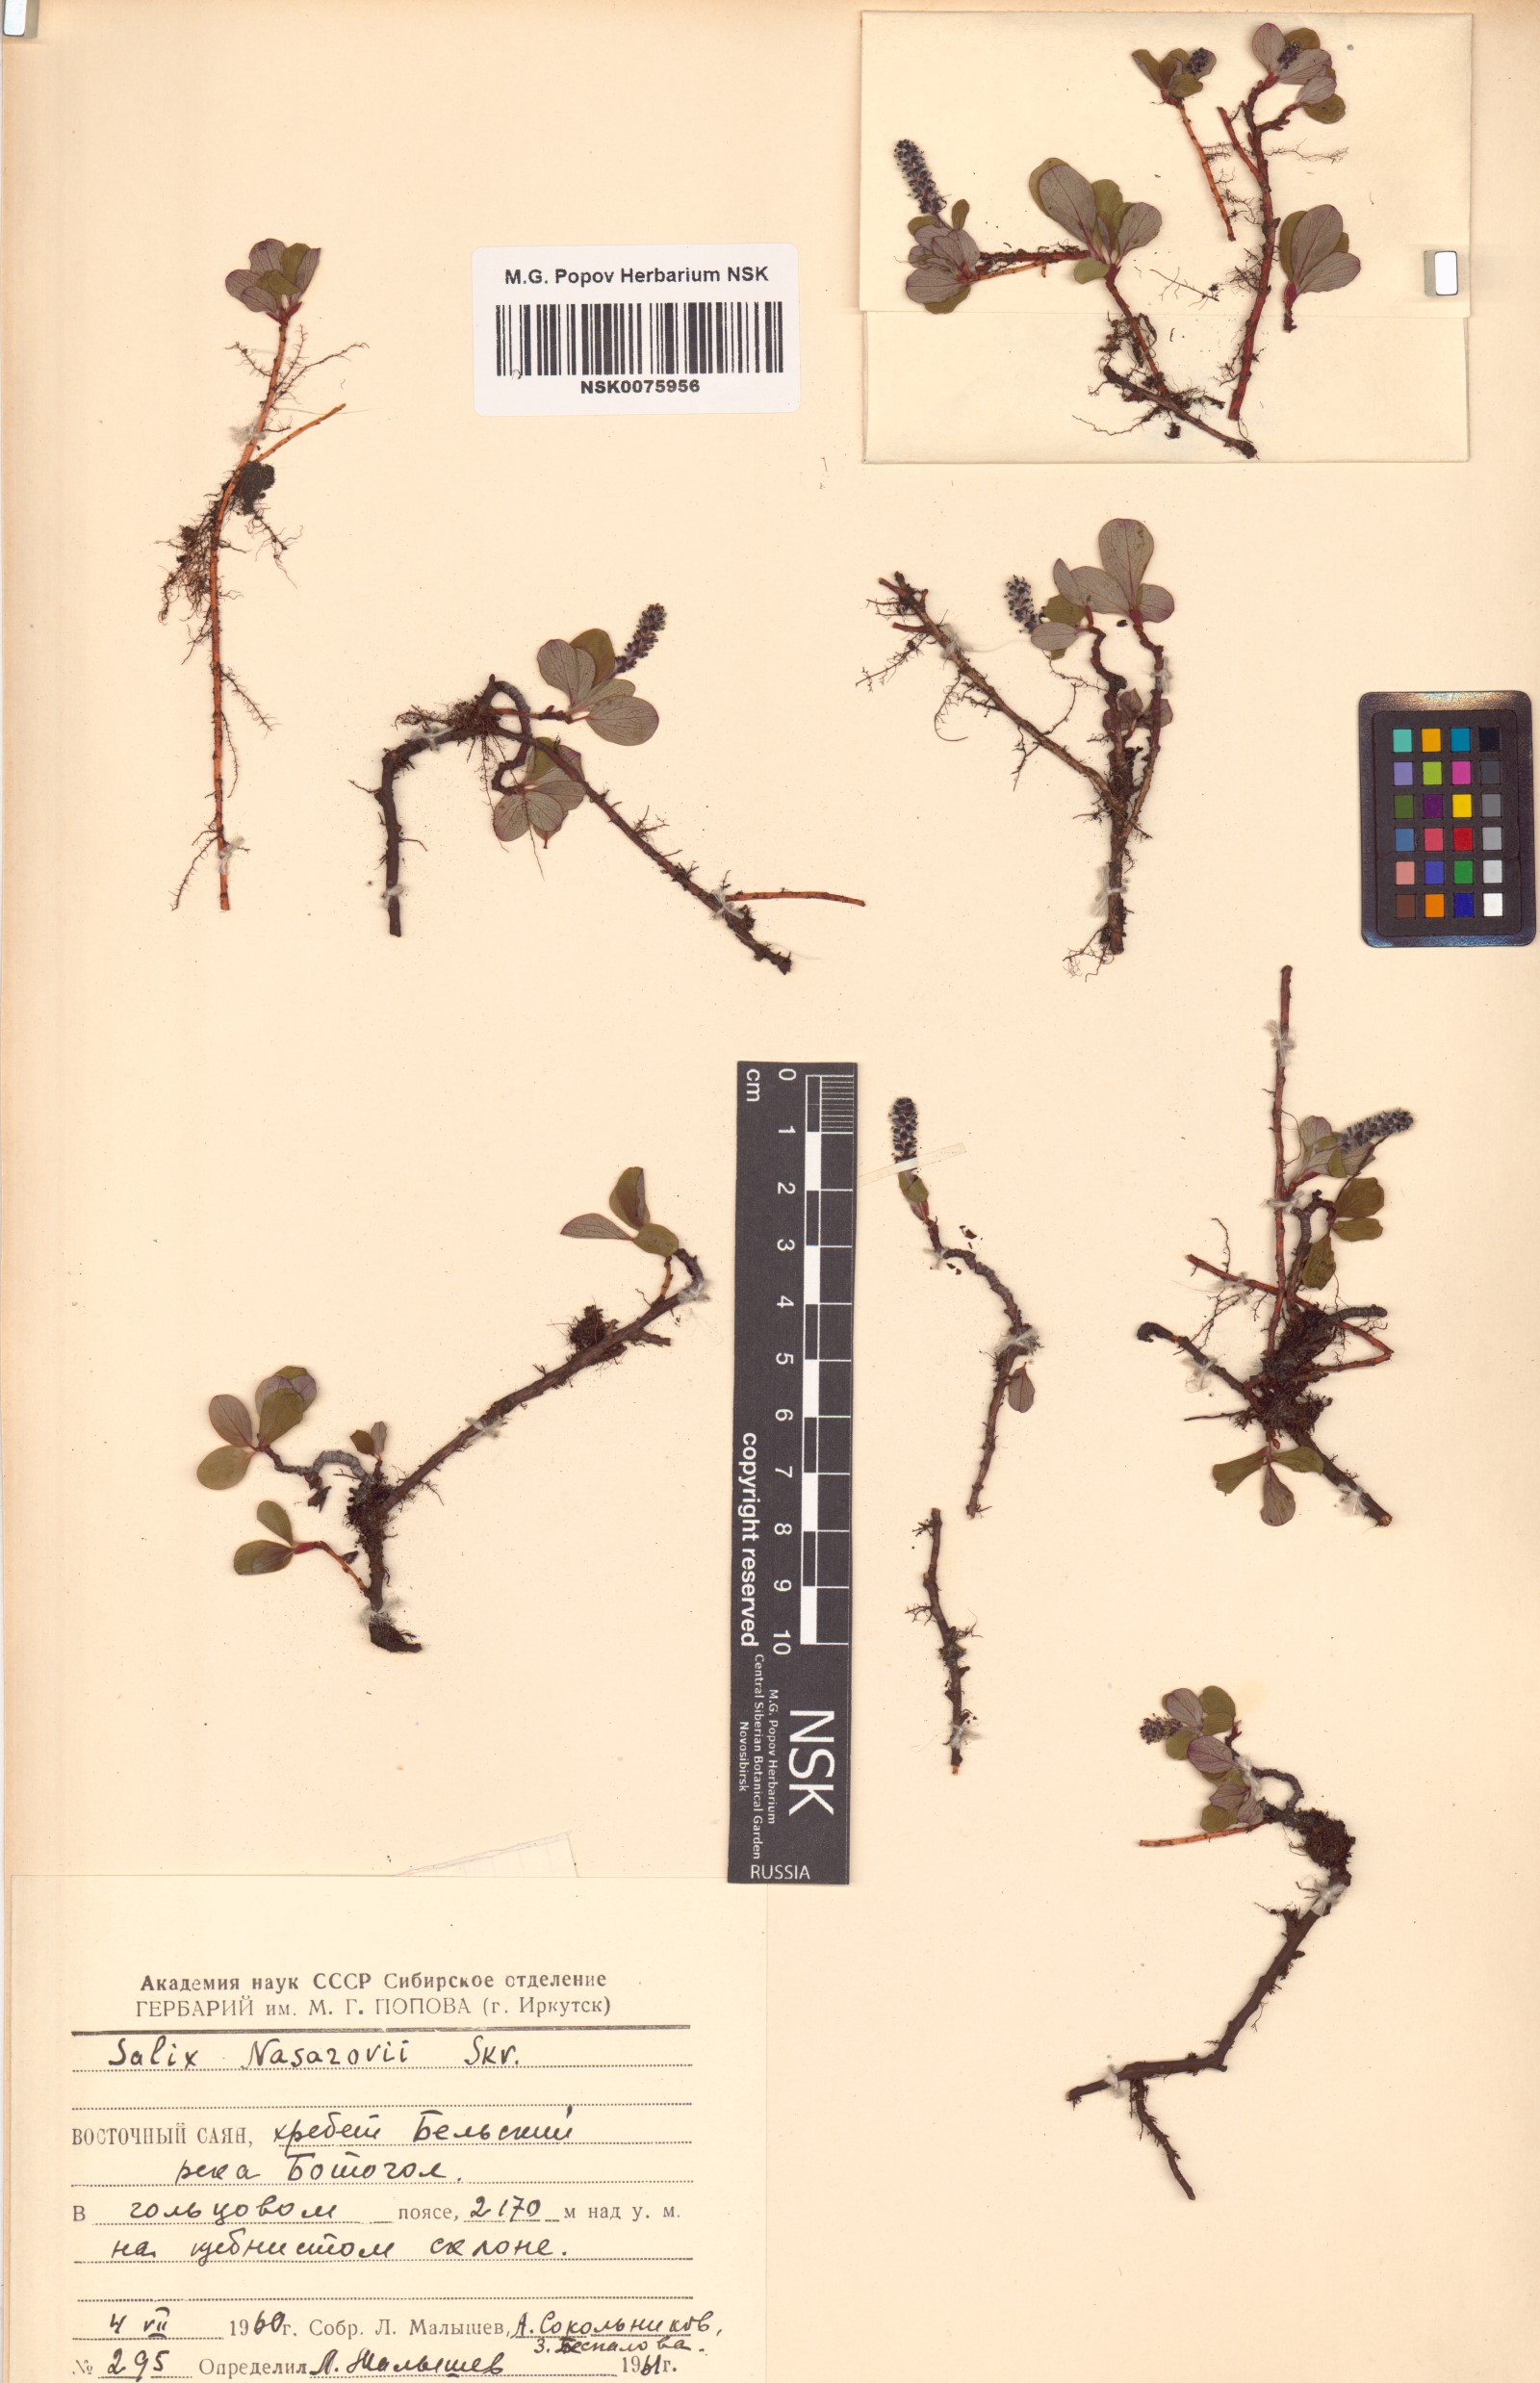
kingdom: Plantae
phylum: Tracheophyta
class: Magnoliopsida
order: Malpighiales
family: Salicaceae
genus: Salix
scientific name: Salix nasarovii
